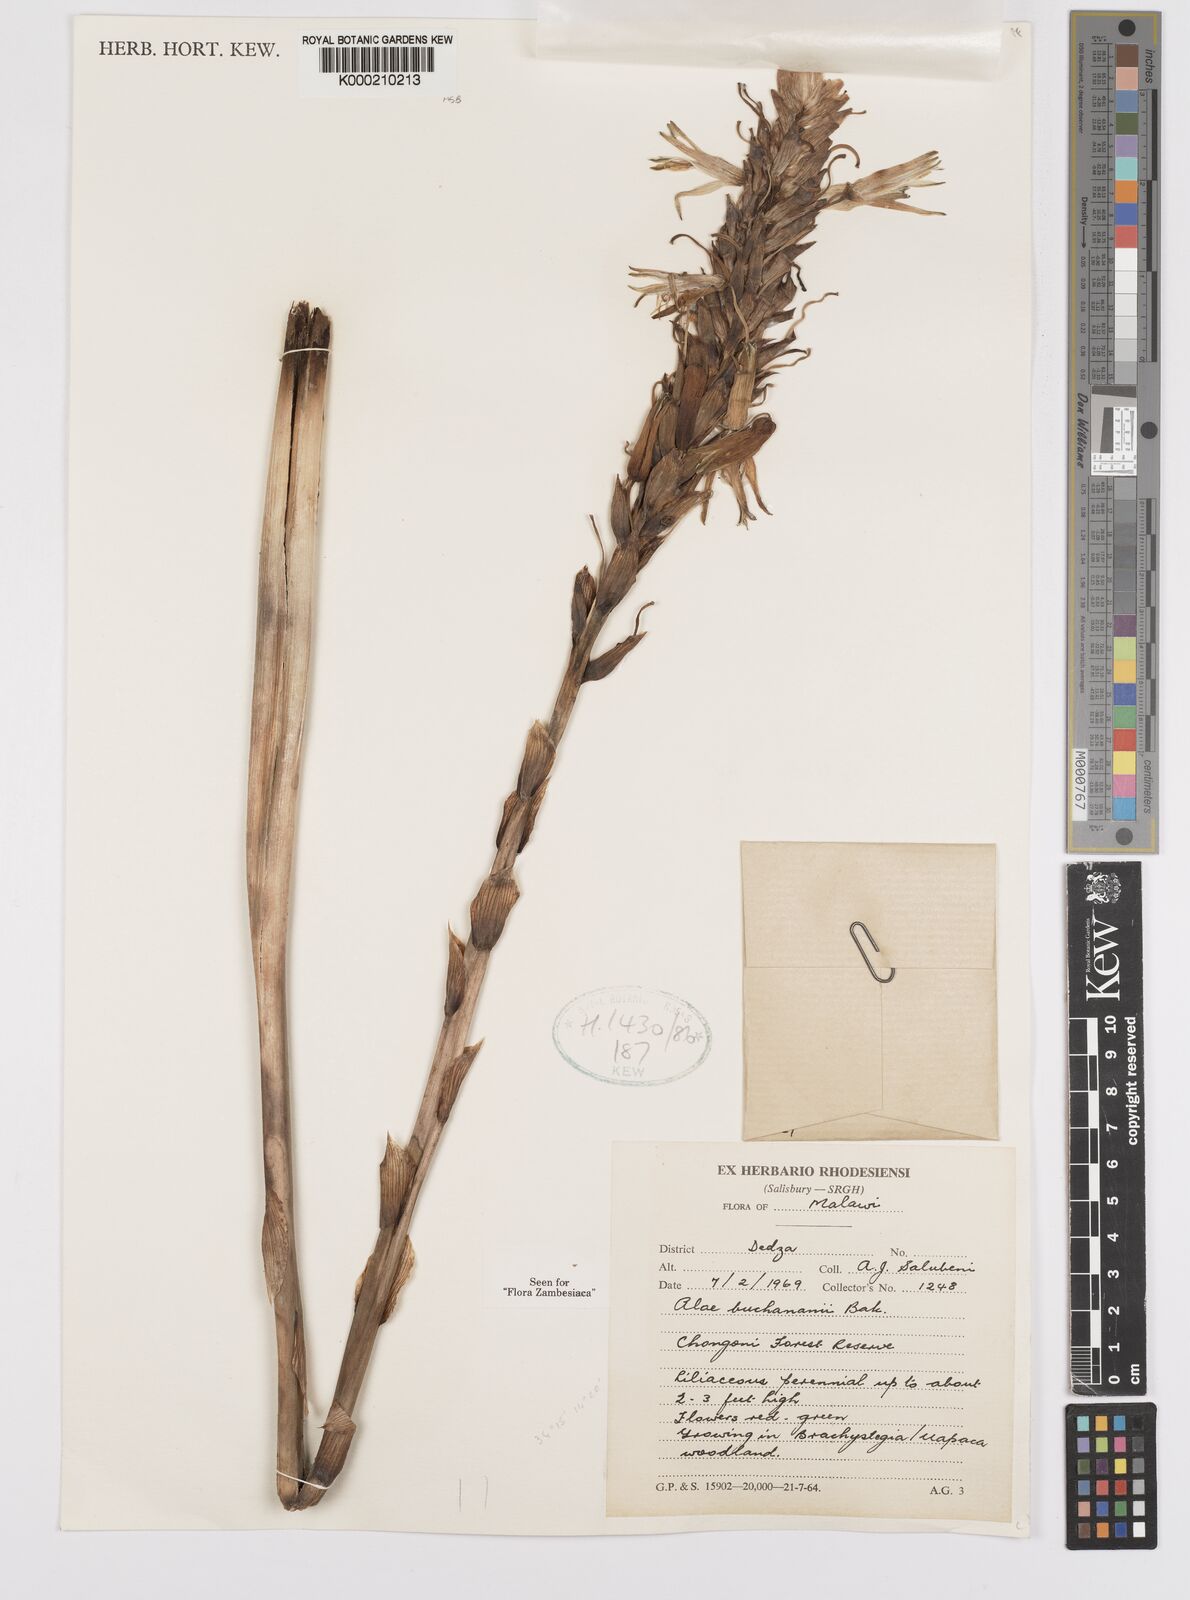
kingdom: Plantae
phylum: Tracheophyta
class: Liliopsida
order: Asparagales
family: Asphodelaceae
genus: Aloe
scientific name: Aloe buchananii
